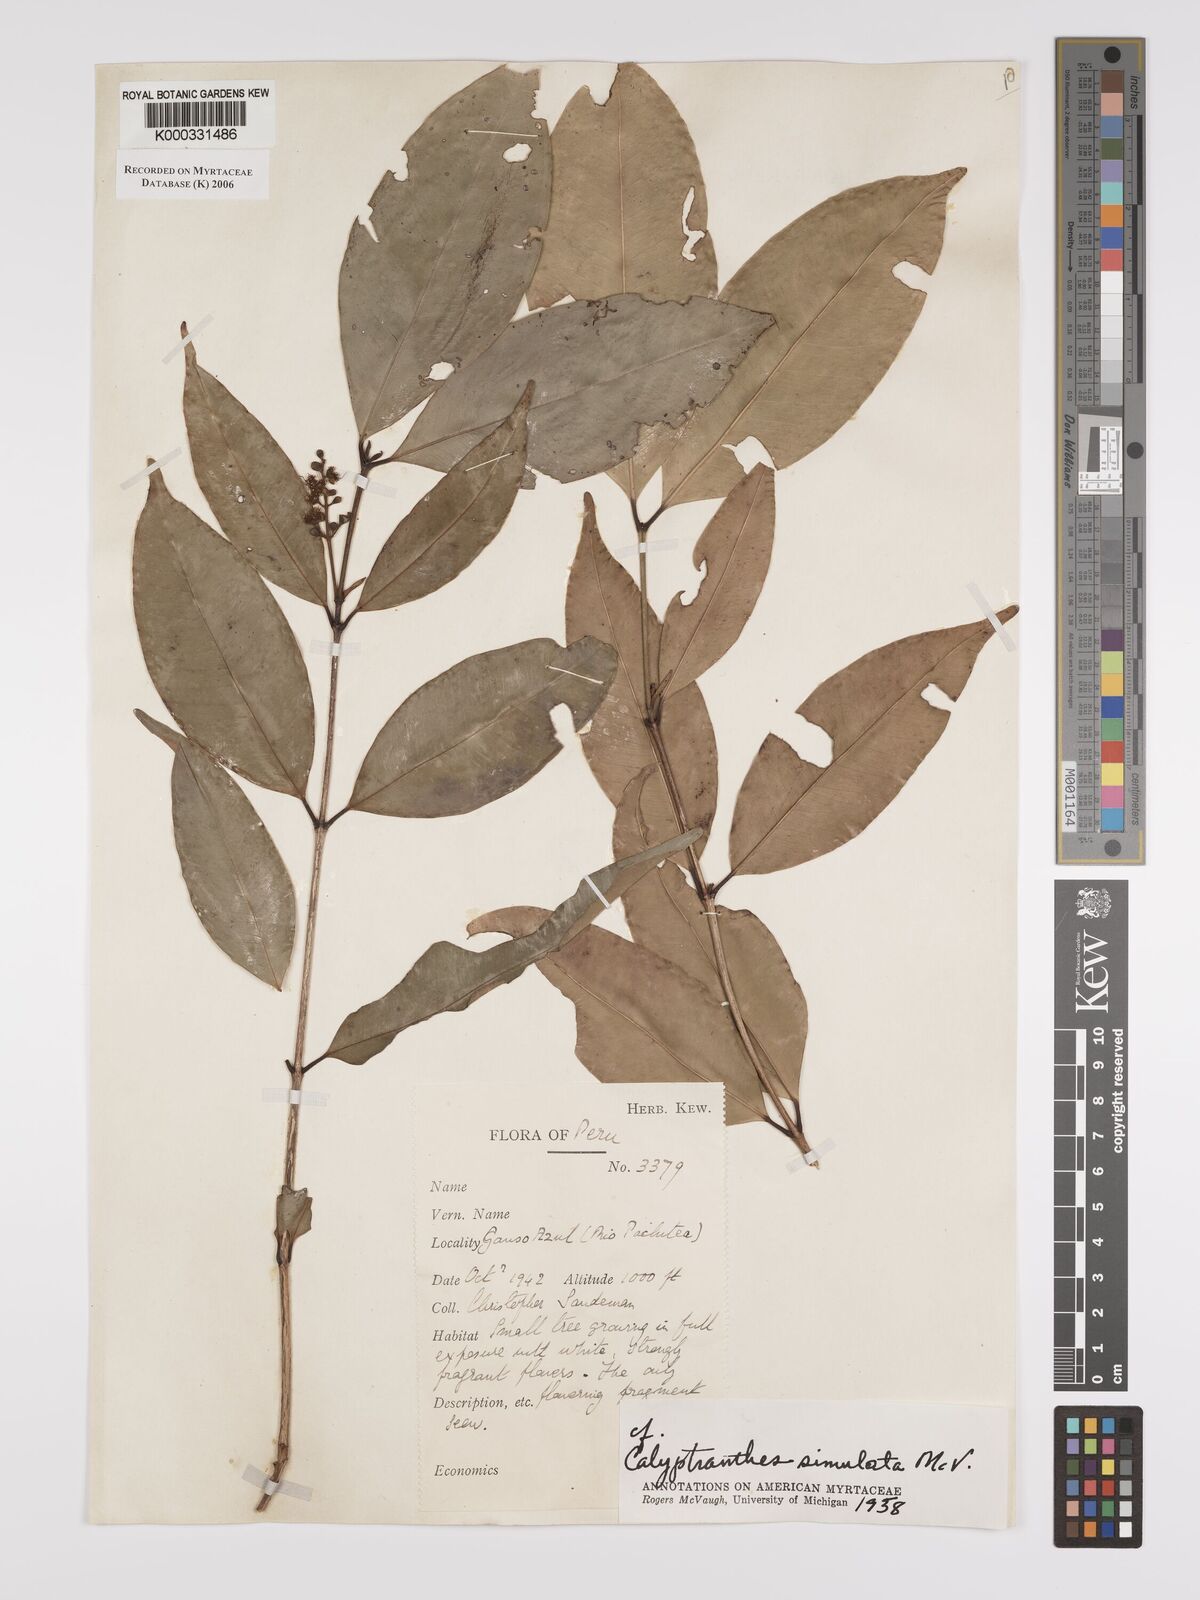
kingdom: Plantae
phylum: Tracheophyta
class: Magnoliopsida
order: Myrtales
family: Myrtaceae
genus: Myrcia
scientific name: Myrcia simulata
